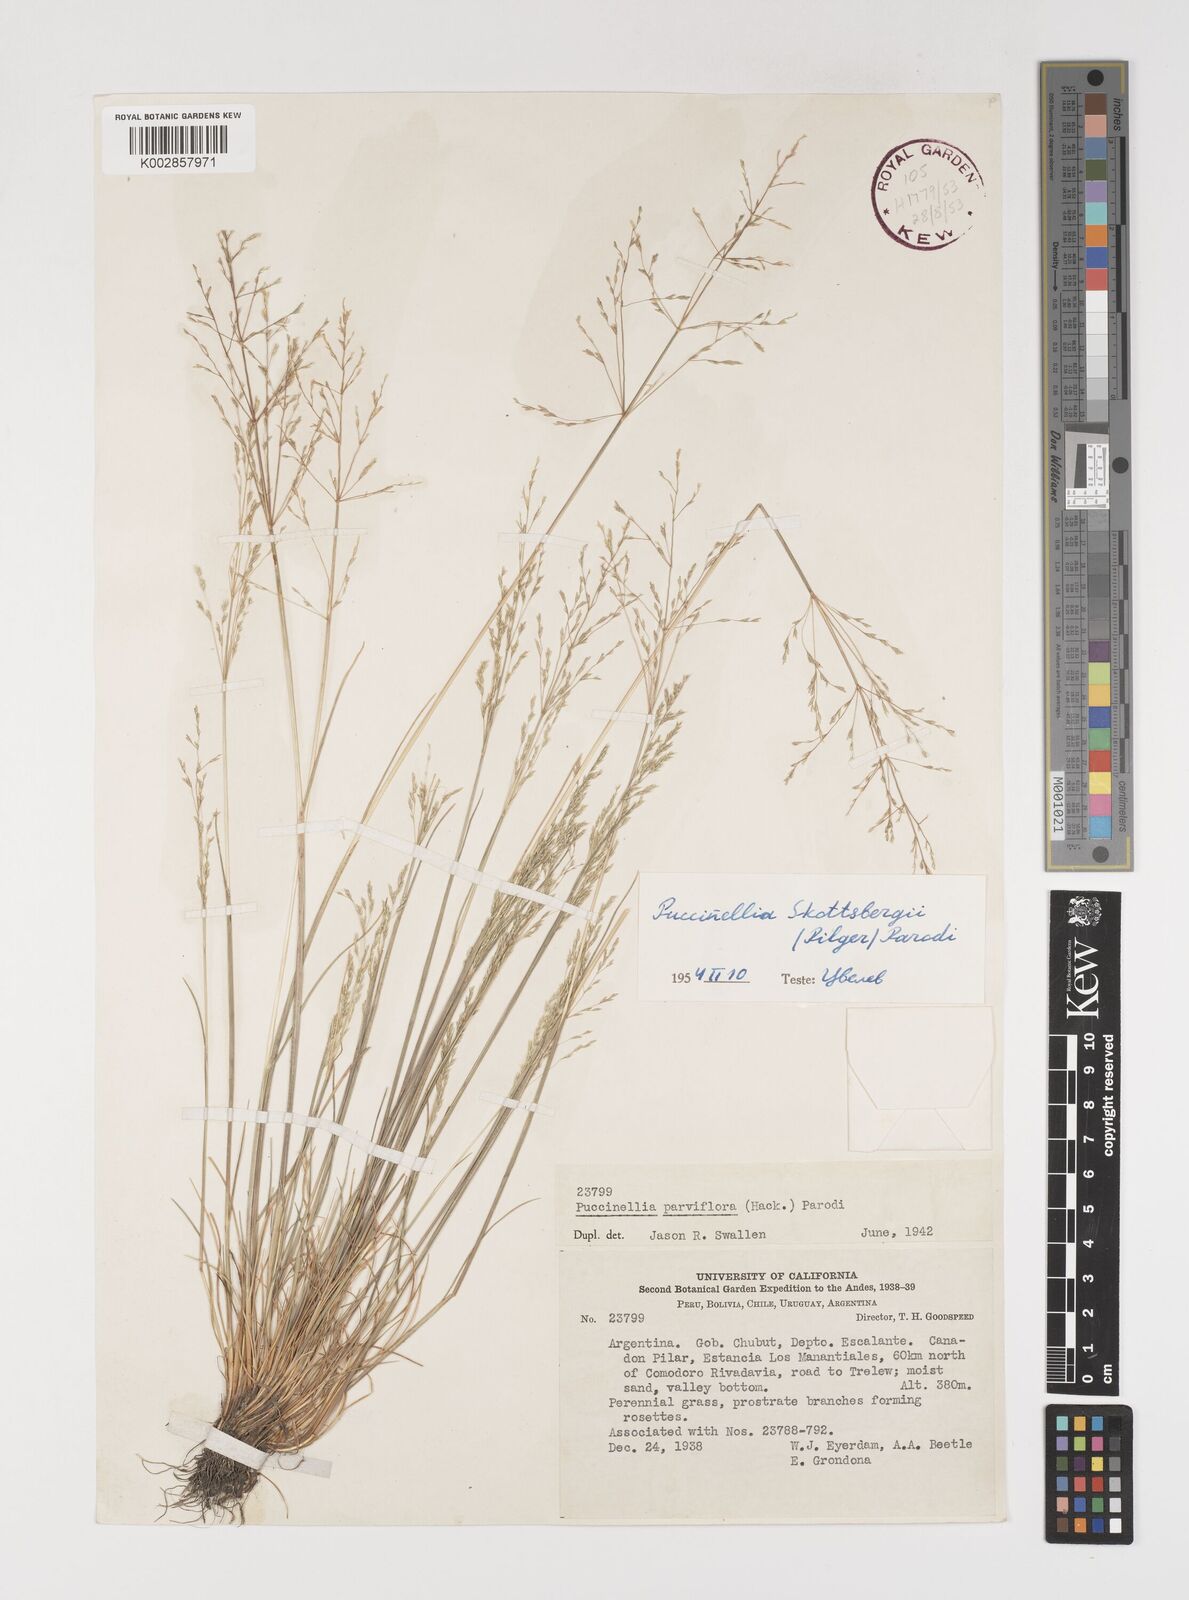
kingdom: Plantae
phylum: Tracheophyta
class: Liliopsida
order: Poales
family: Poaceae
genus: Puccinellia
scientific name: Puccinellia skottsbergii
